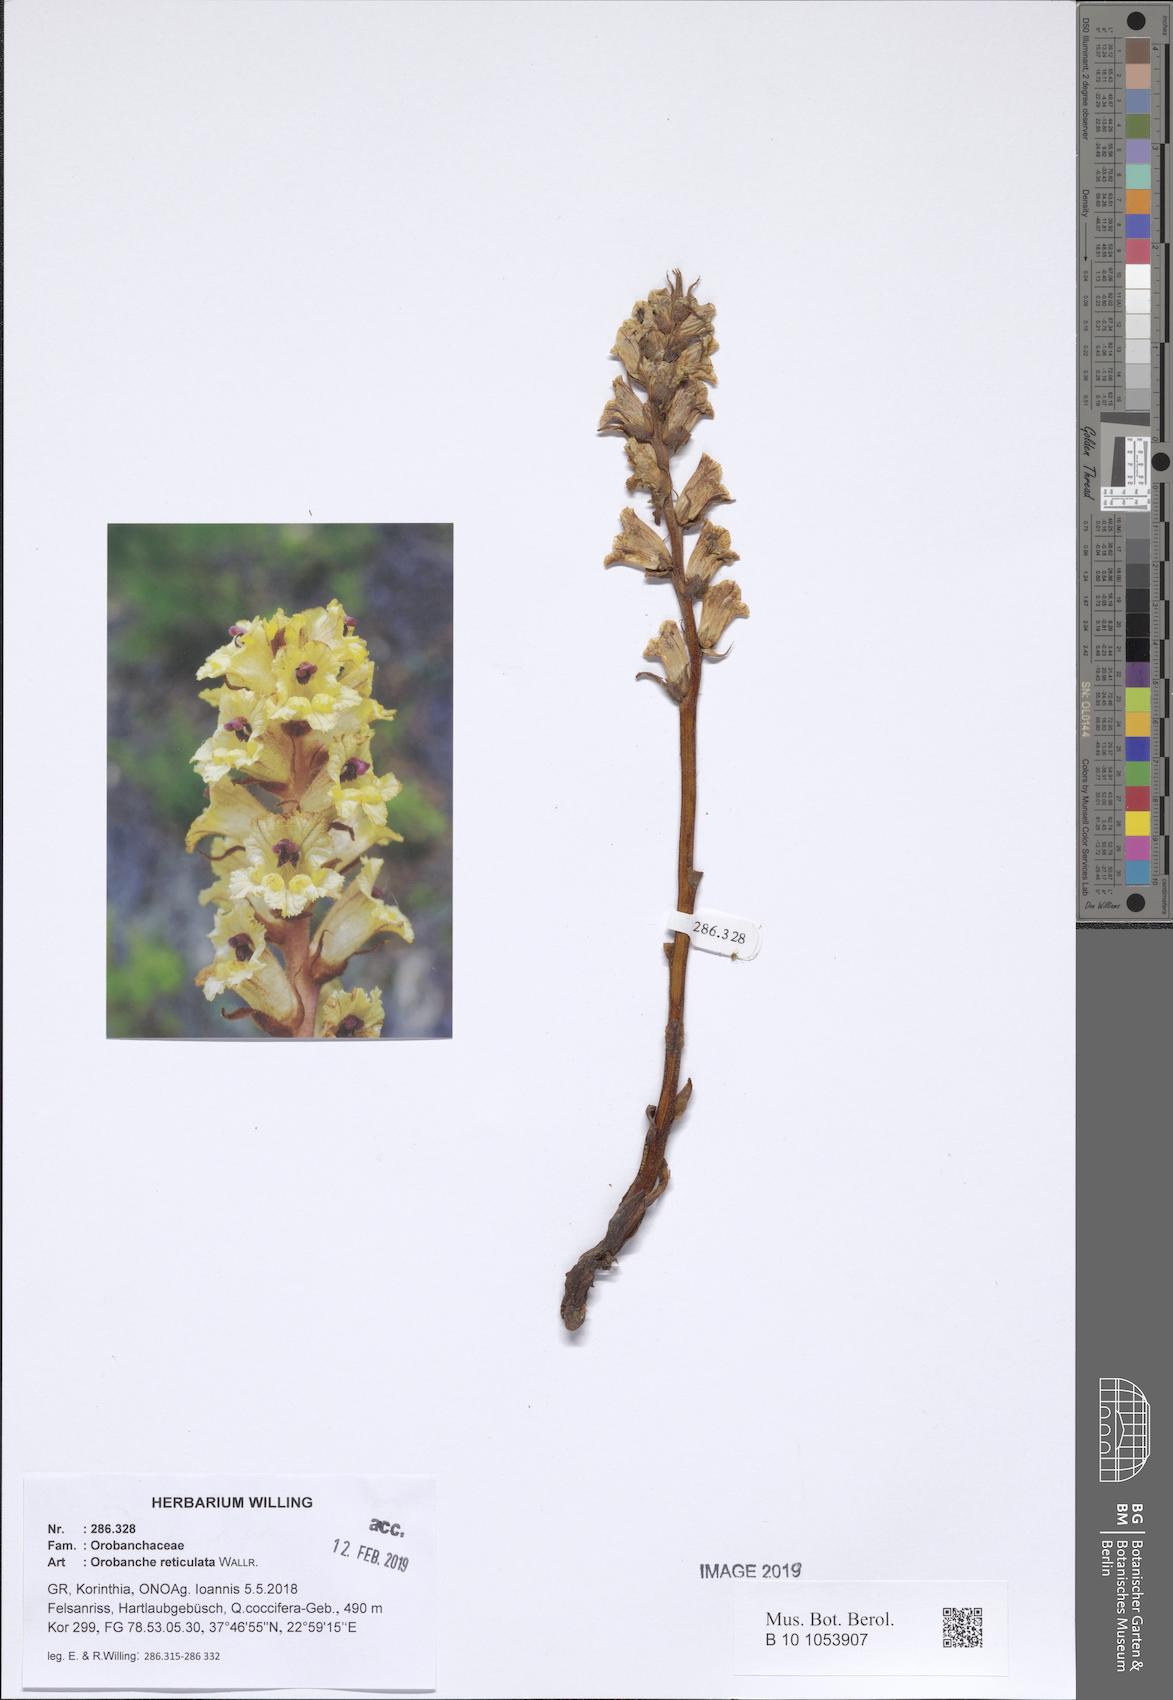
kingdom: Plantae
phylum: Tracheophyta
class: Magnoliopsida
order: Lamiales
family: Orobanchaceae
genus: Orobanche
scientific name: Orobanche reticulata
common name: Thistle broomrape
